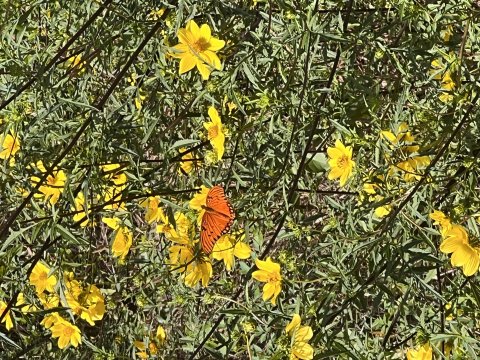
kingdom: Animalia
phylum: Arthropoda
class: Insecta
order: Lepidoptera
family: Nymphalidae
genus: Dione
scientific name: Dione vanillae
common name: Gulf Fritillary
